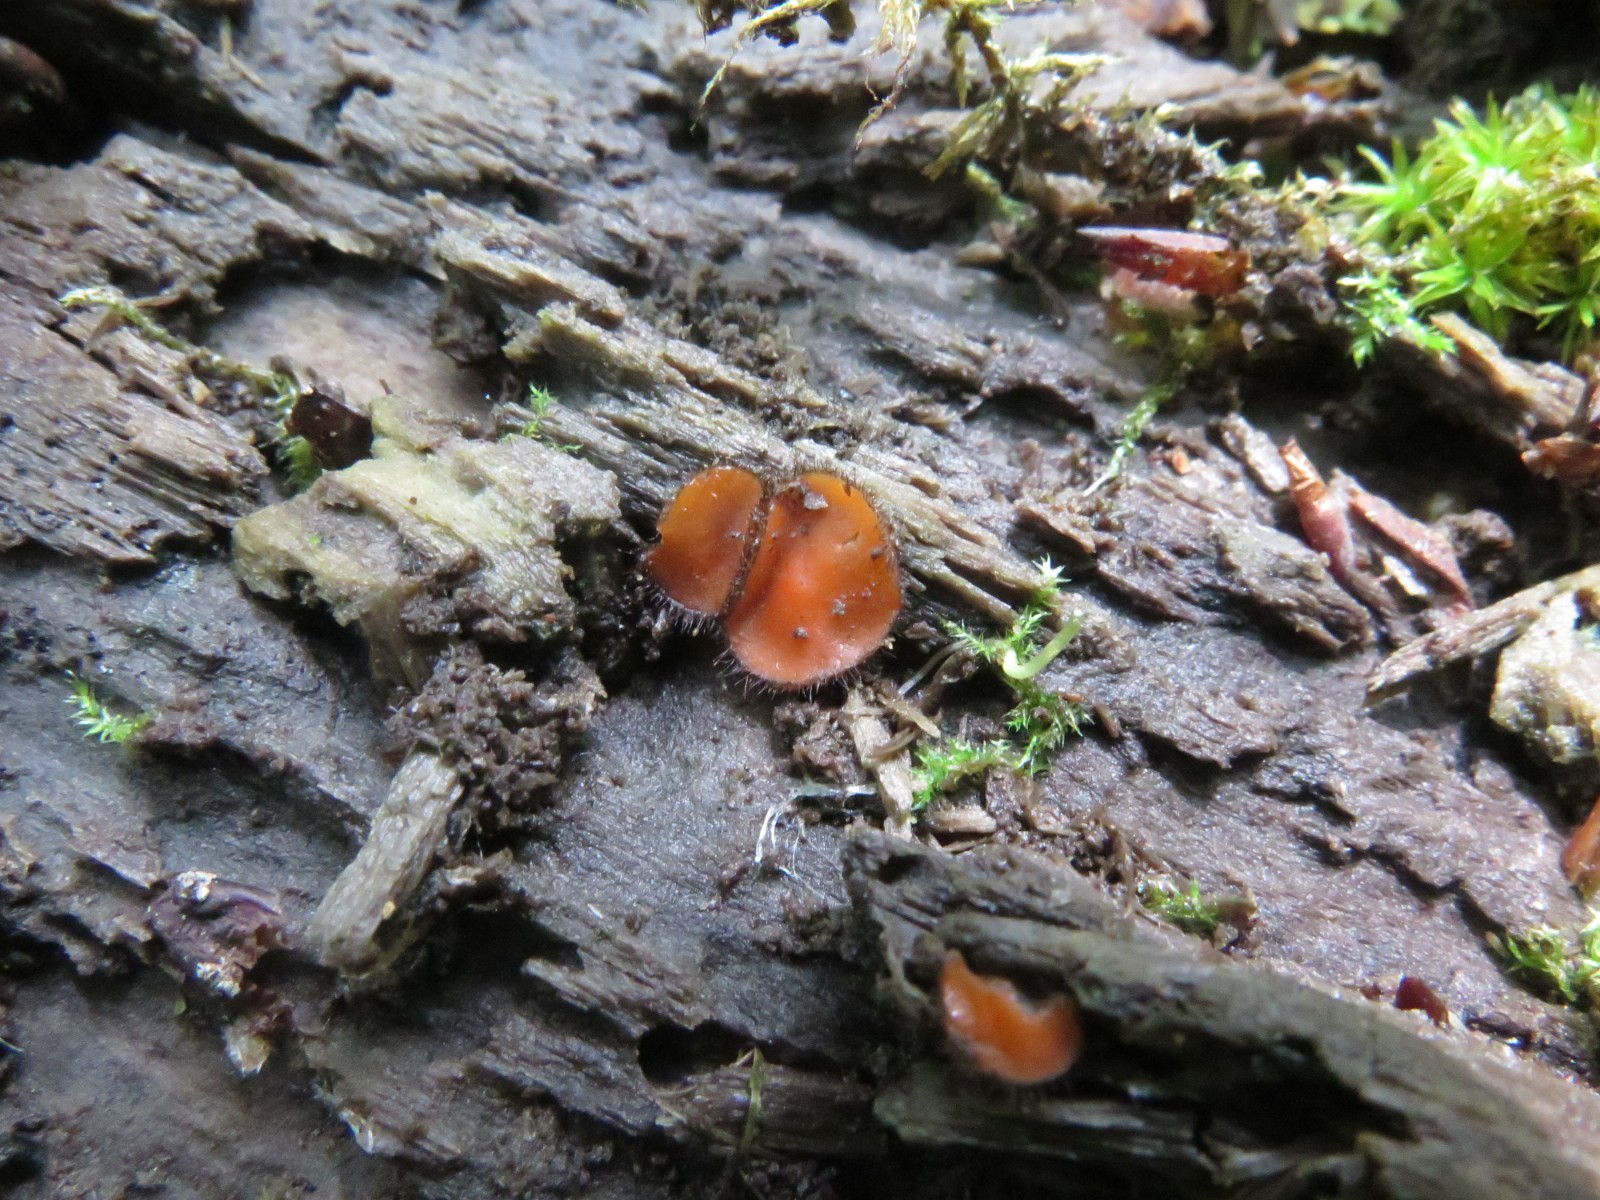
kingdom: Fungi
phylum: Ascomycota
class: Pezizomycetes
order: Pezizales
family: Pyronemataceae
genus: Scutellinia
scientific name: Scutellinia scutellata
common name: frynset skjoldbæger
